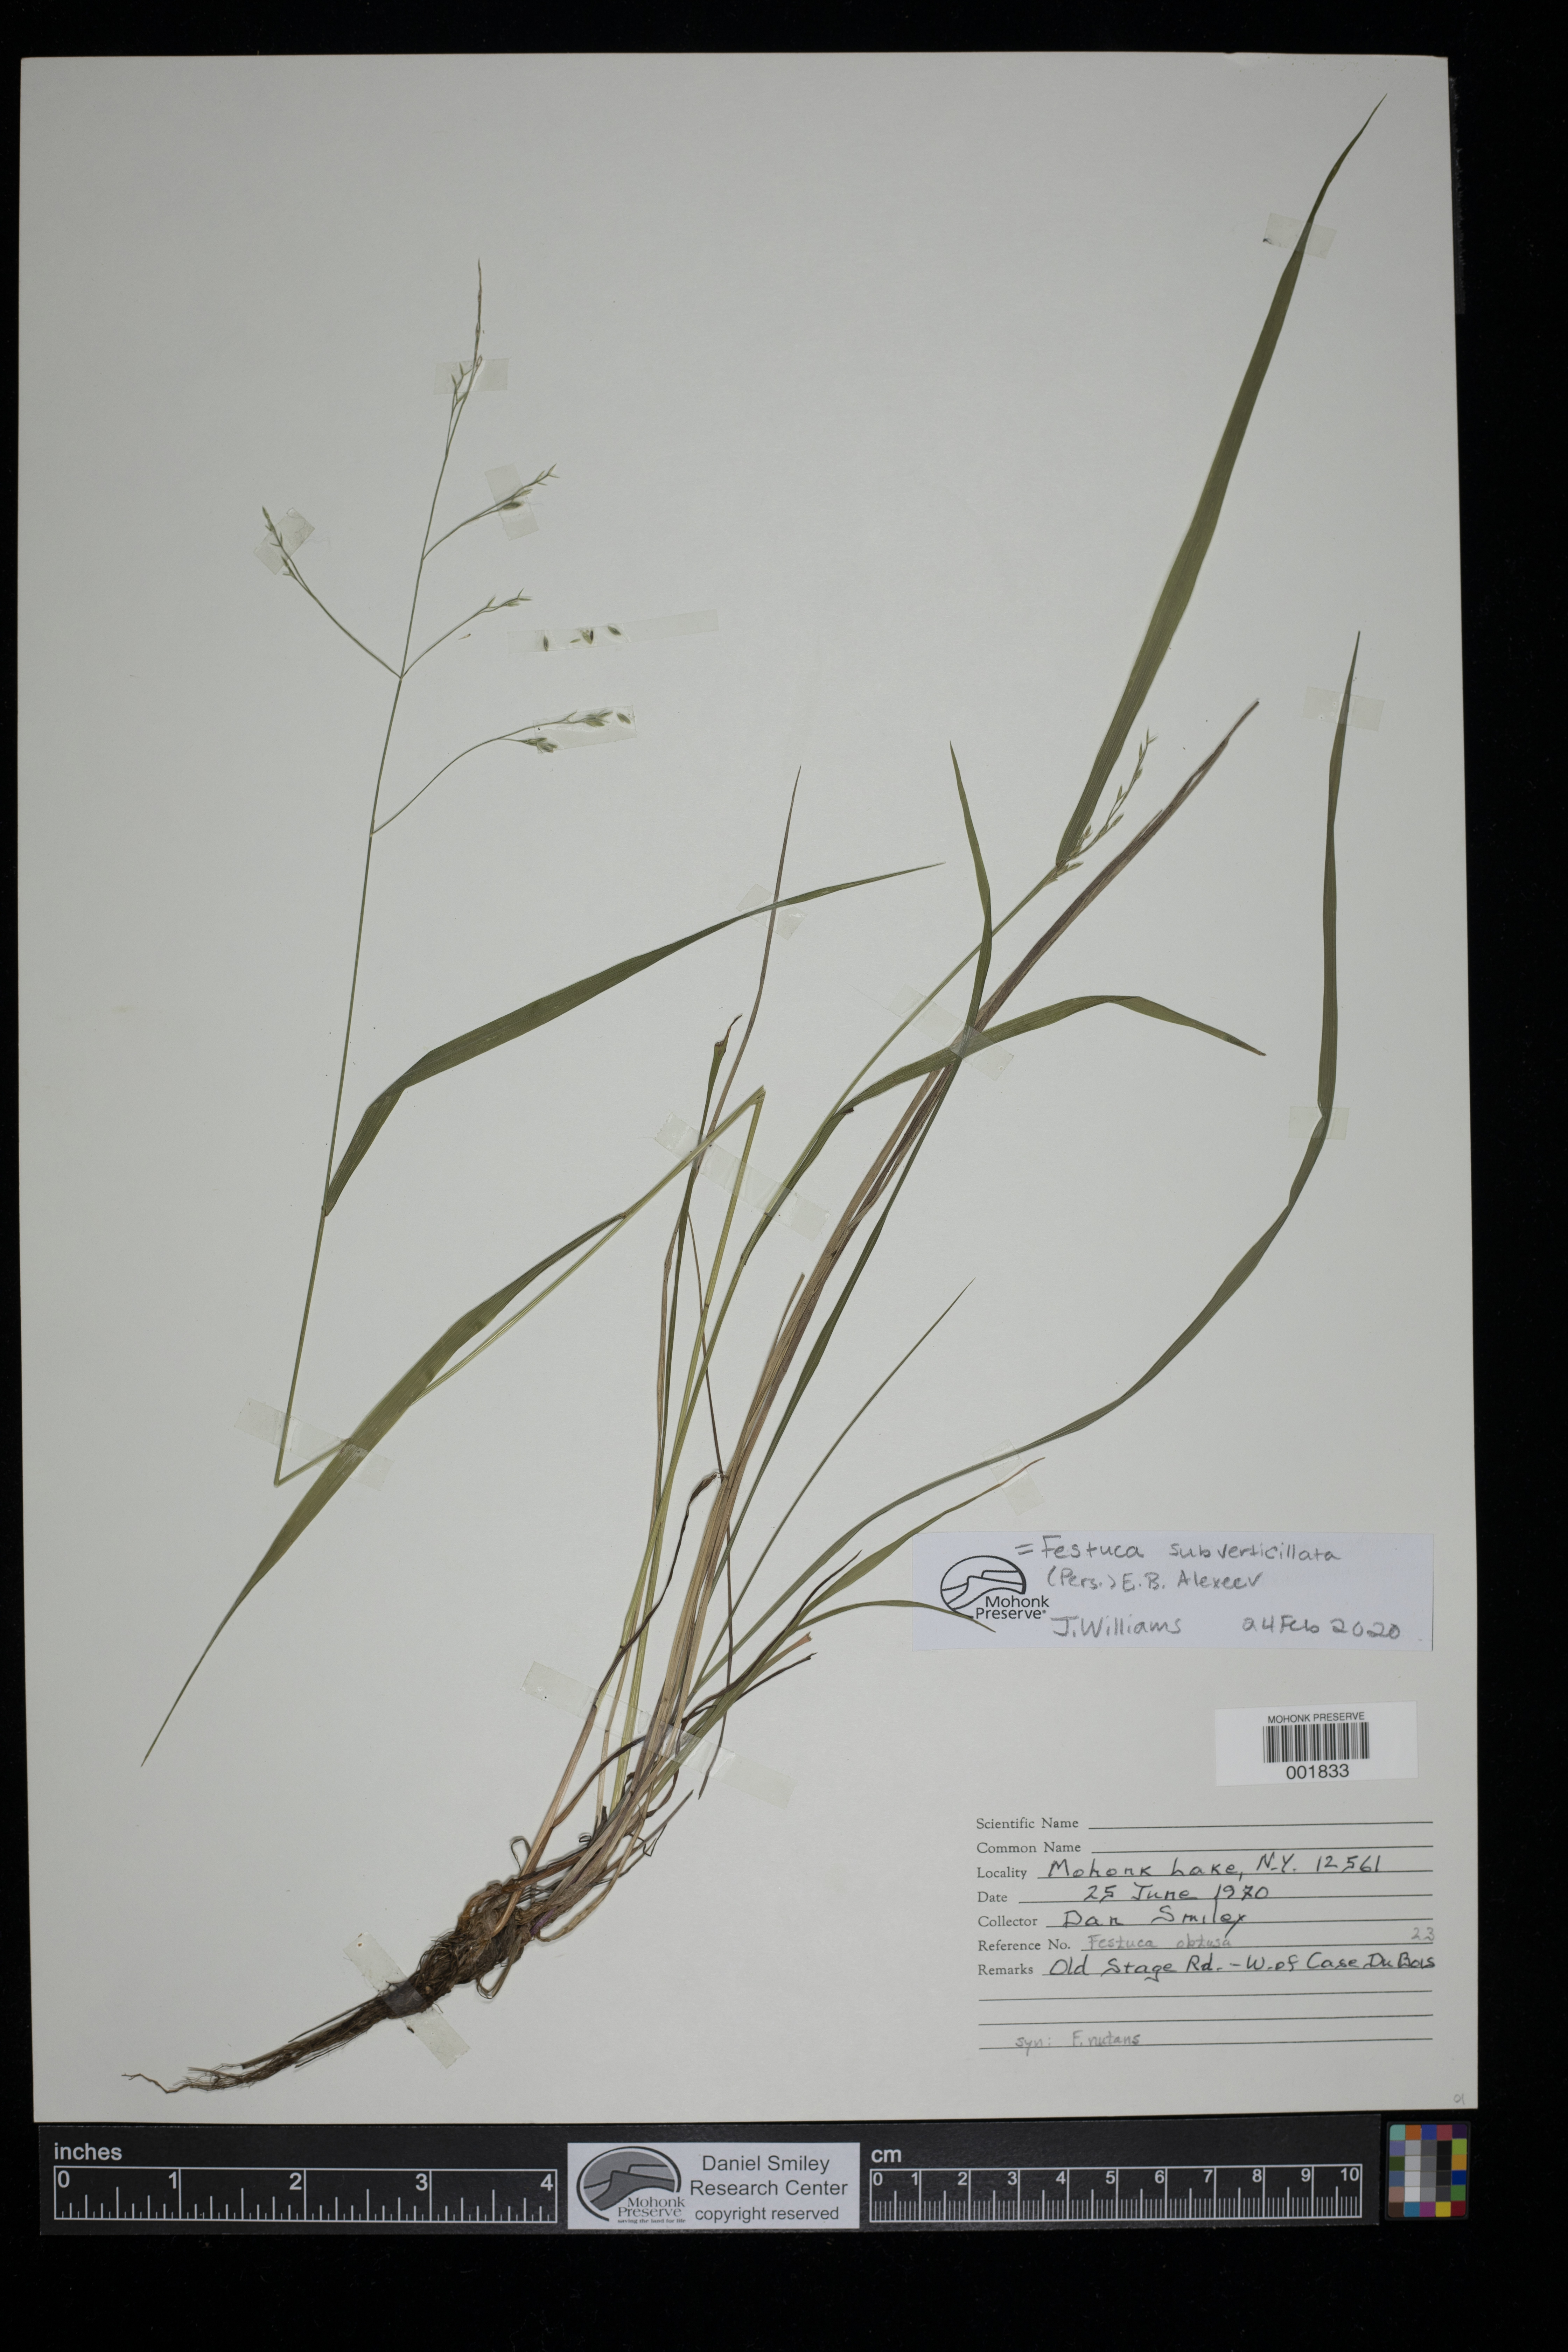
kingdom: Plantae
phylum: Tracheophyta
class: Liliopsida
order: Poales
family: Poaceae
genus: Festuca
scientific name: Festuca subverticillata
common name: Nodding fescue
